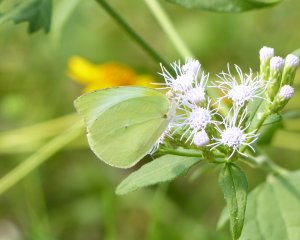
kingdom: Animalia
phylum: Arthropoda
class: Insecta
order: Lepidoptera
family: Pieridae
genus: Kricogonia
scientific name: Kricogonia lyside
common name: Lyside Sulphur
